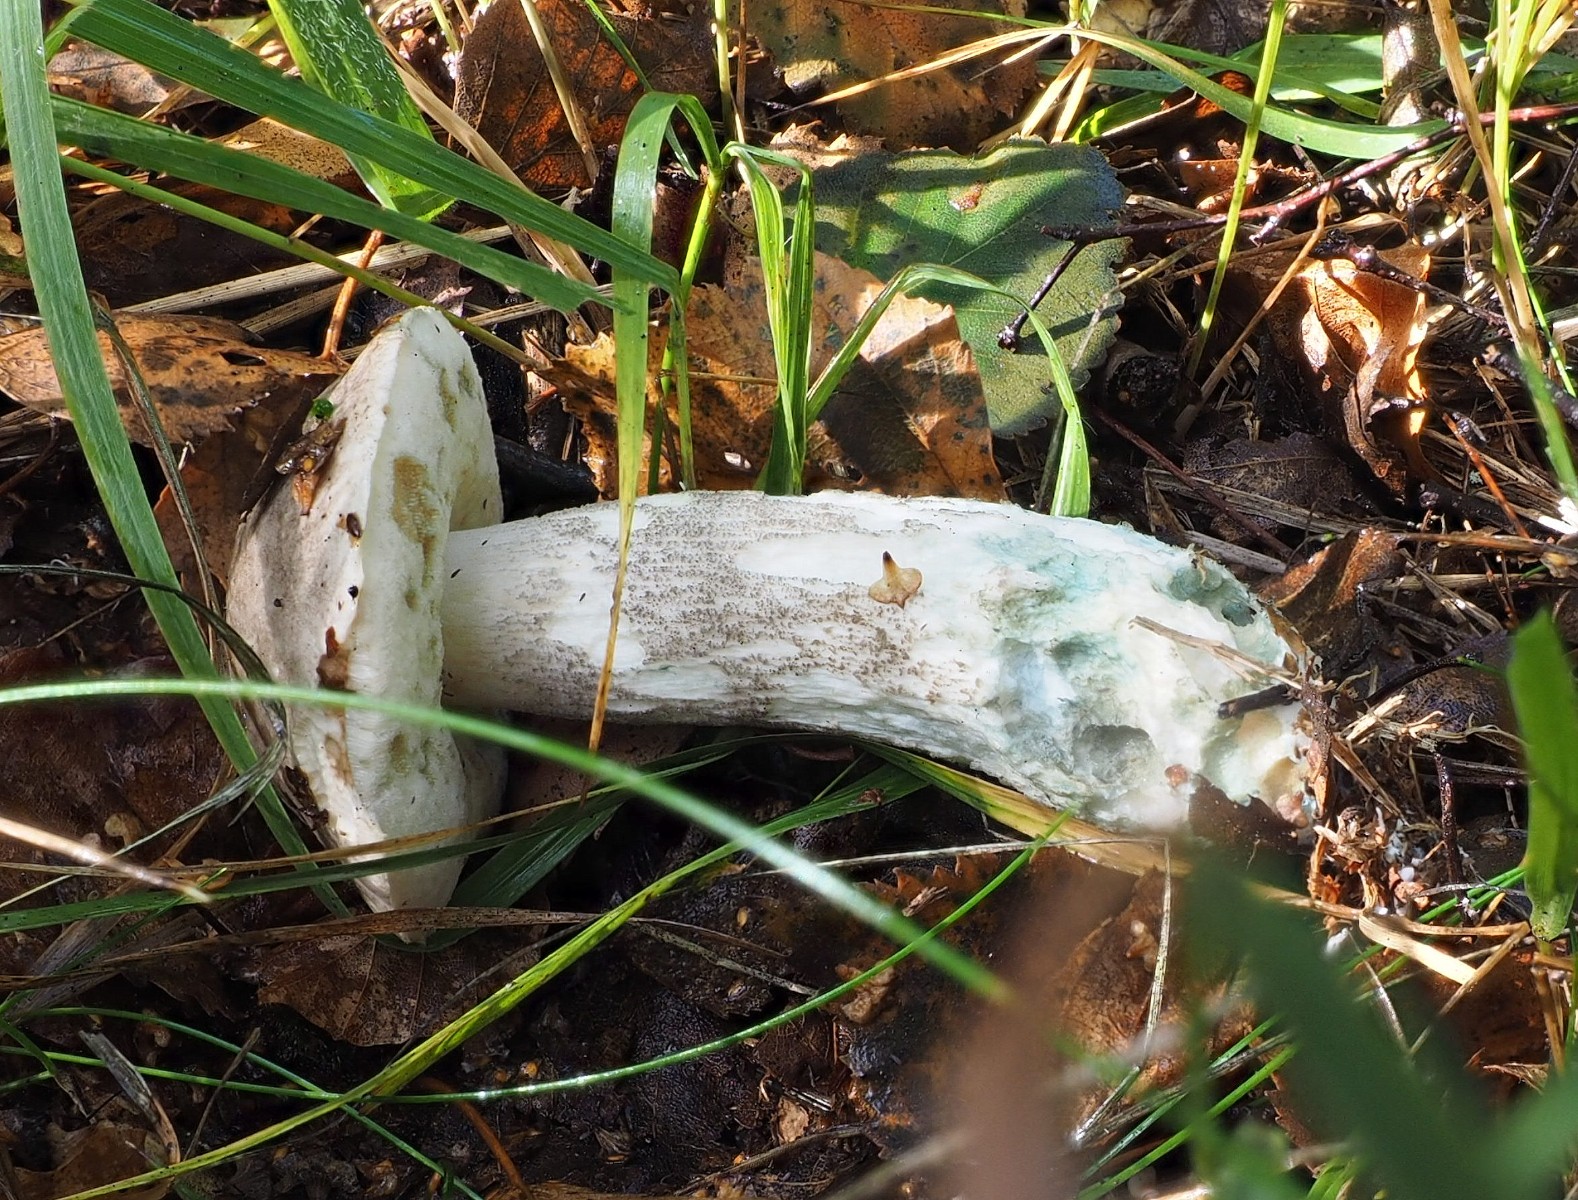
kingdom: Fungi
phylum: Basidiomycota
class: Agaricomycetes
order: Boletales
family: Boletaceae
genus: Leccinum
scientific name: Leccinum variicolor
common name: flammet skælrørhat
